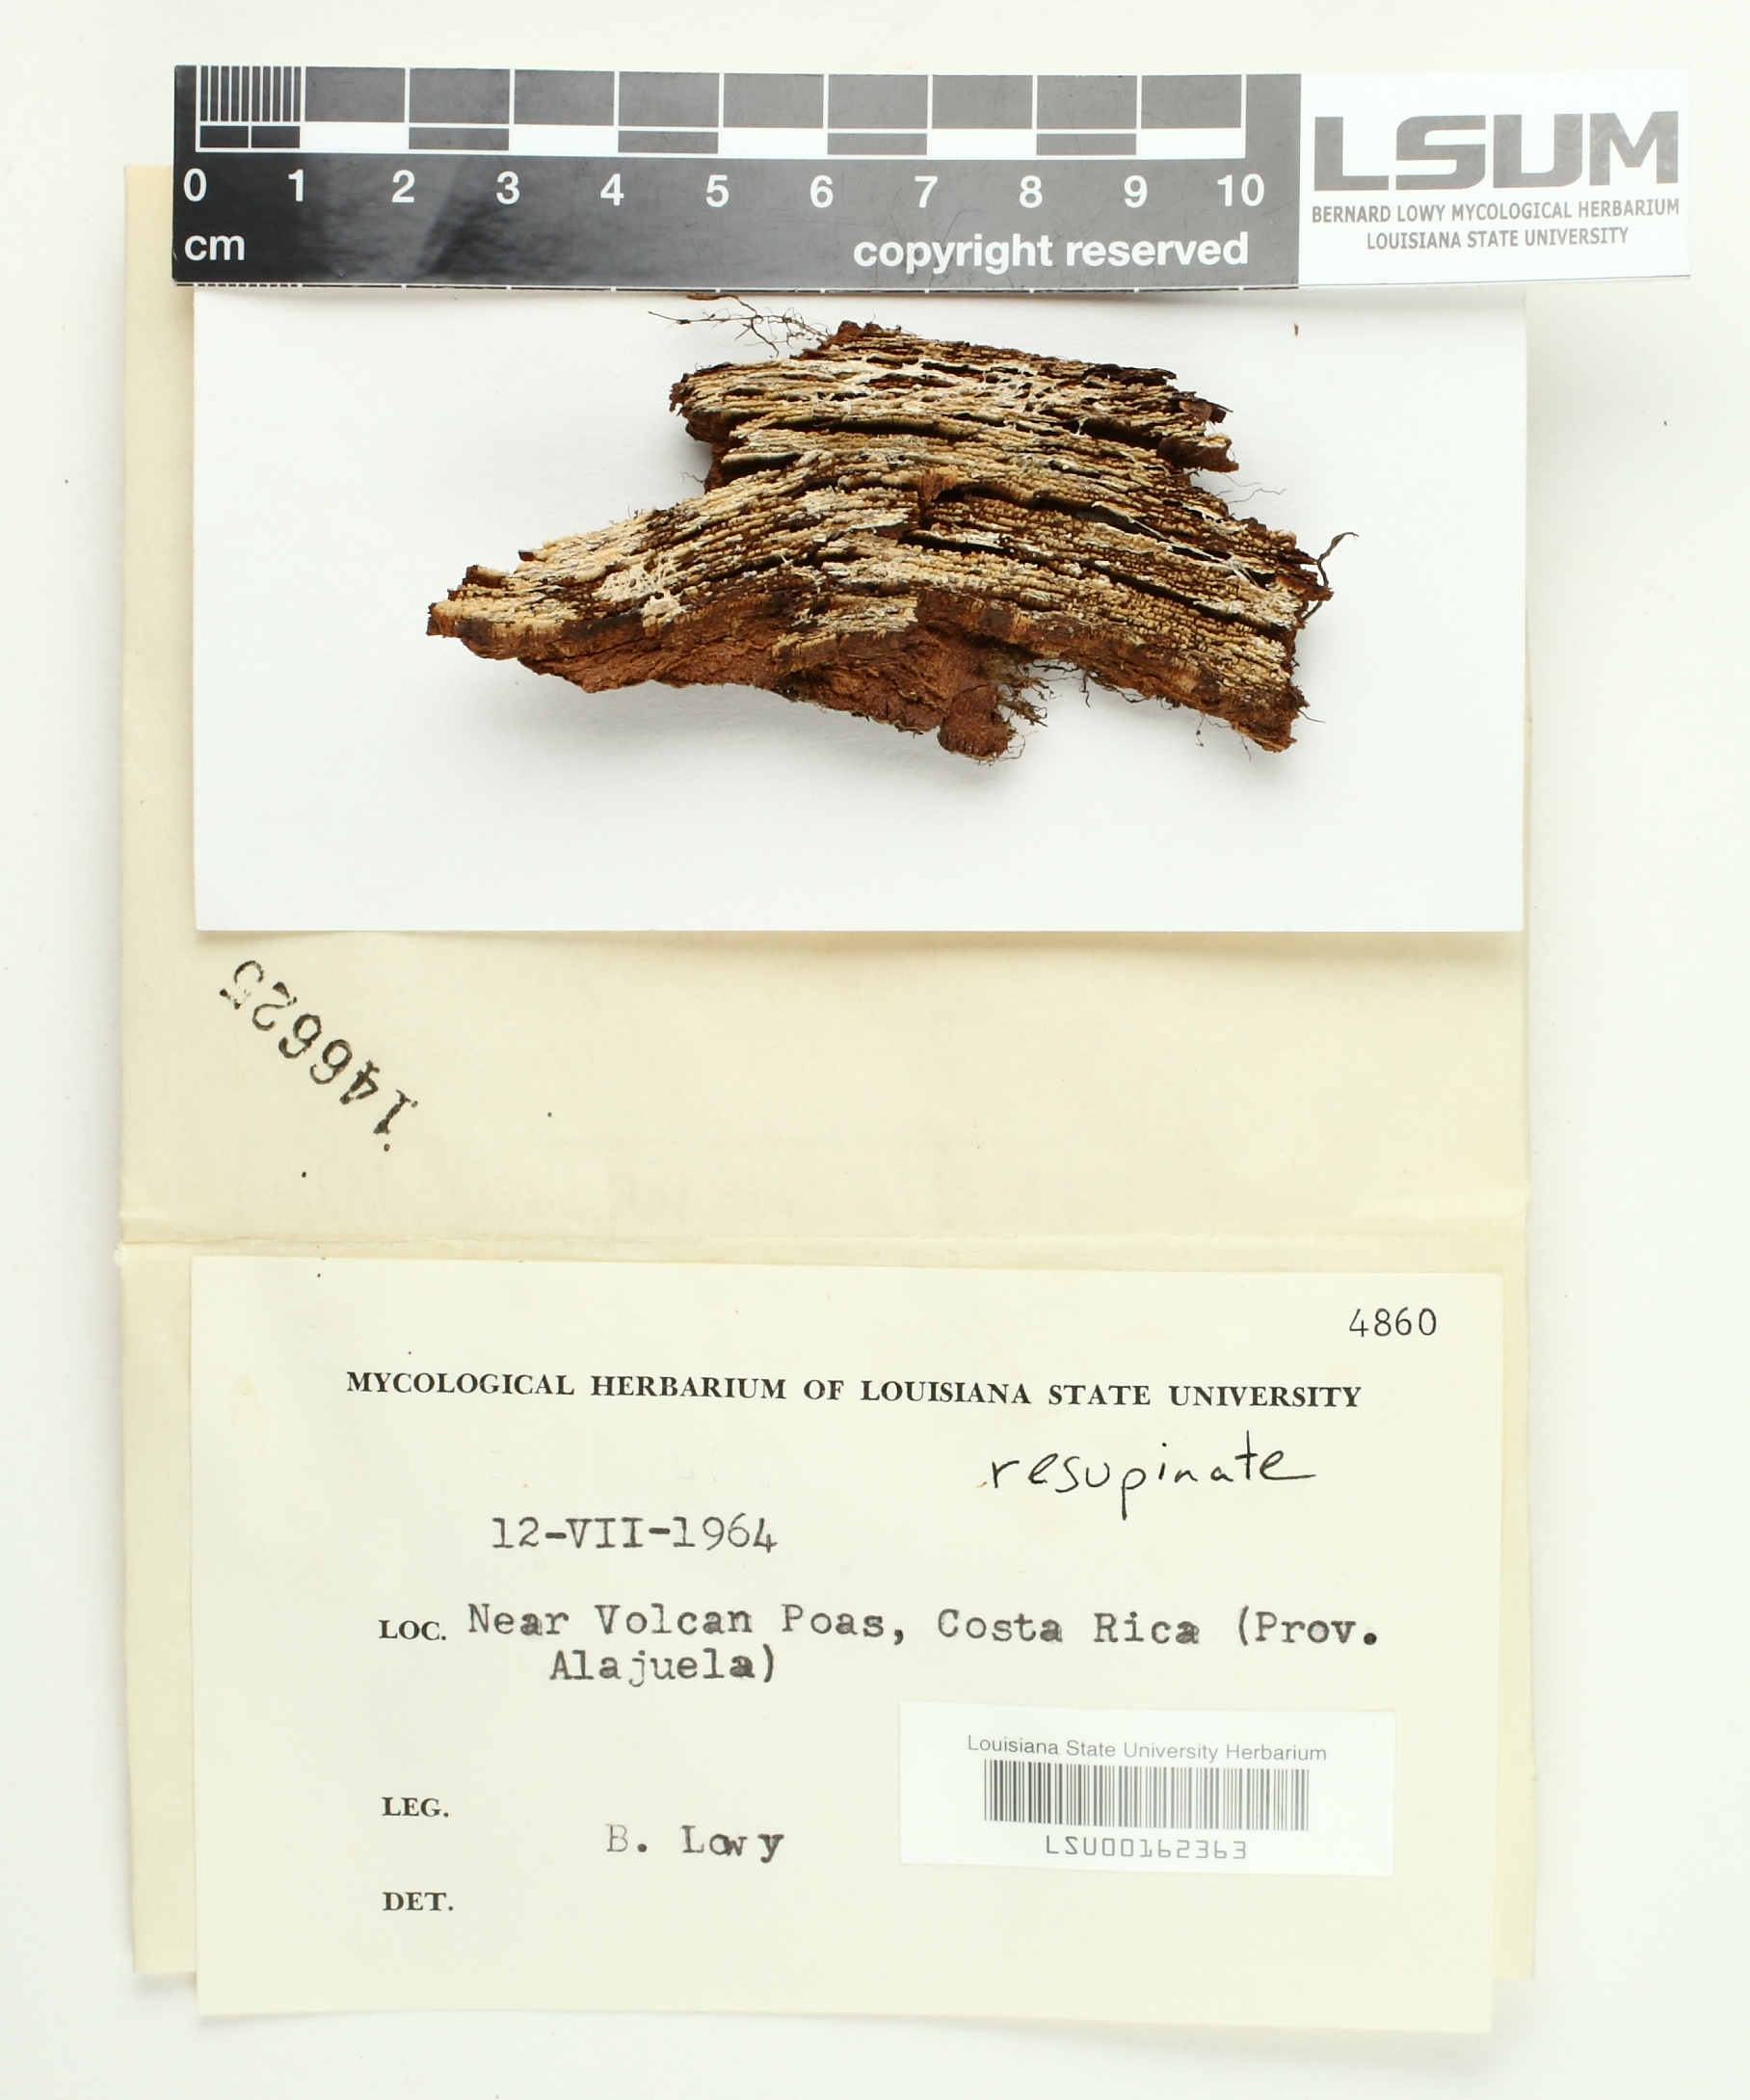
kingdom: Fungi
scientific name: Fungi
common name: Fungi
